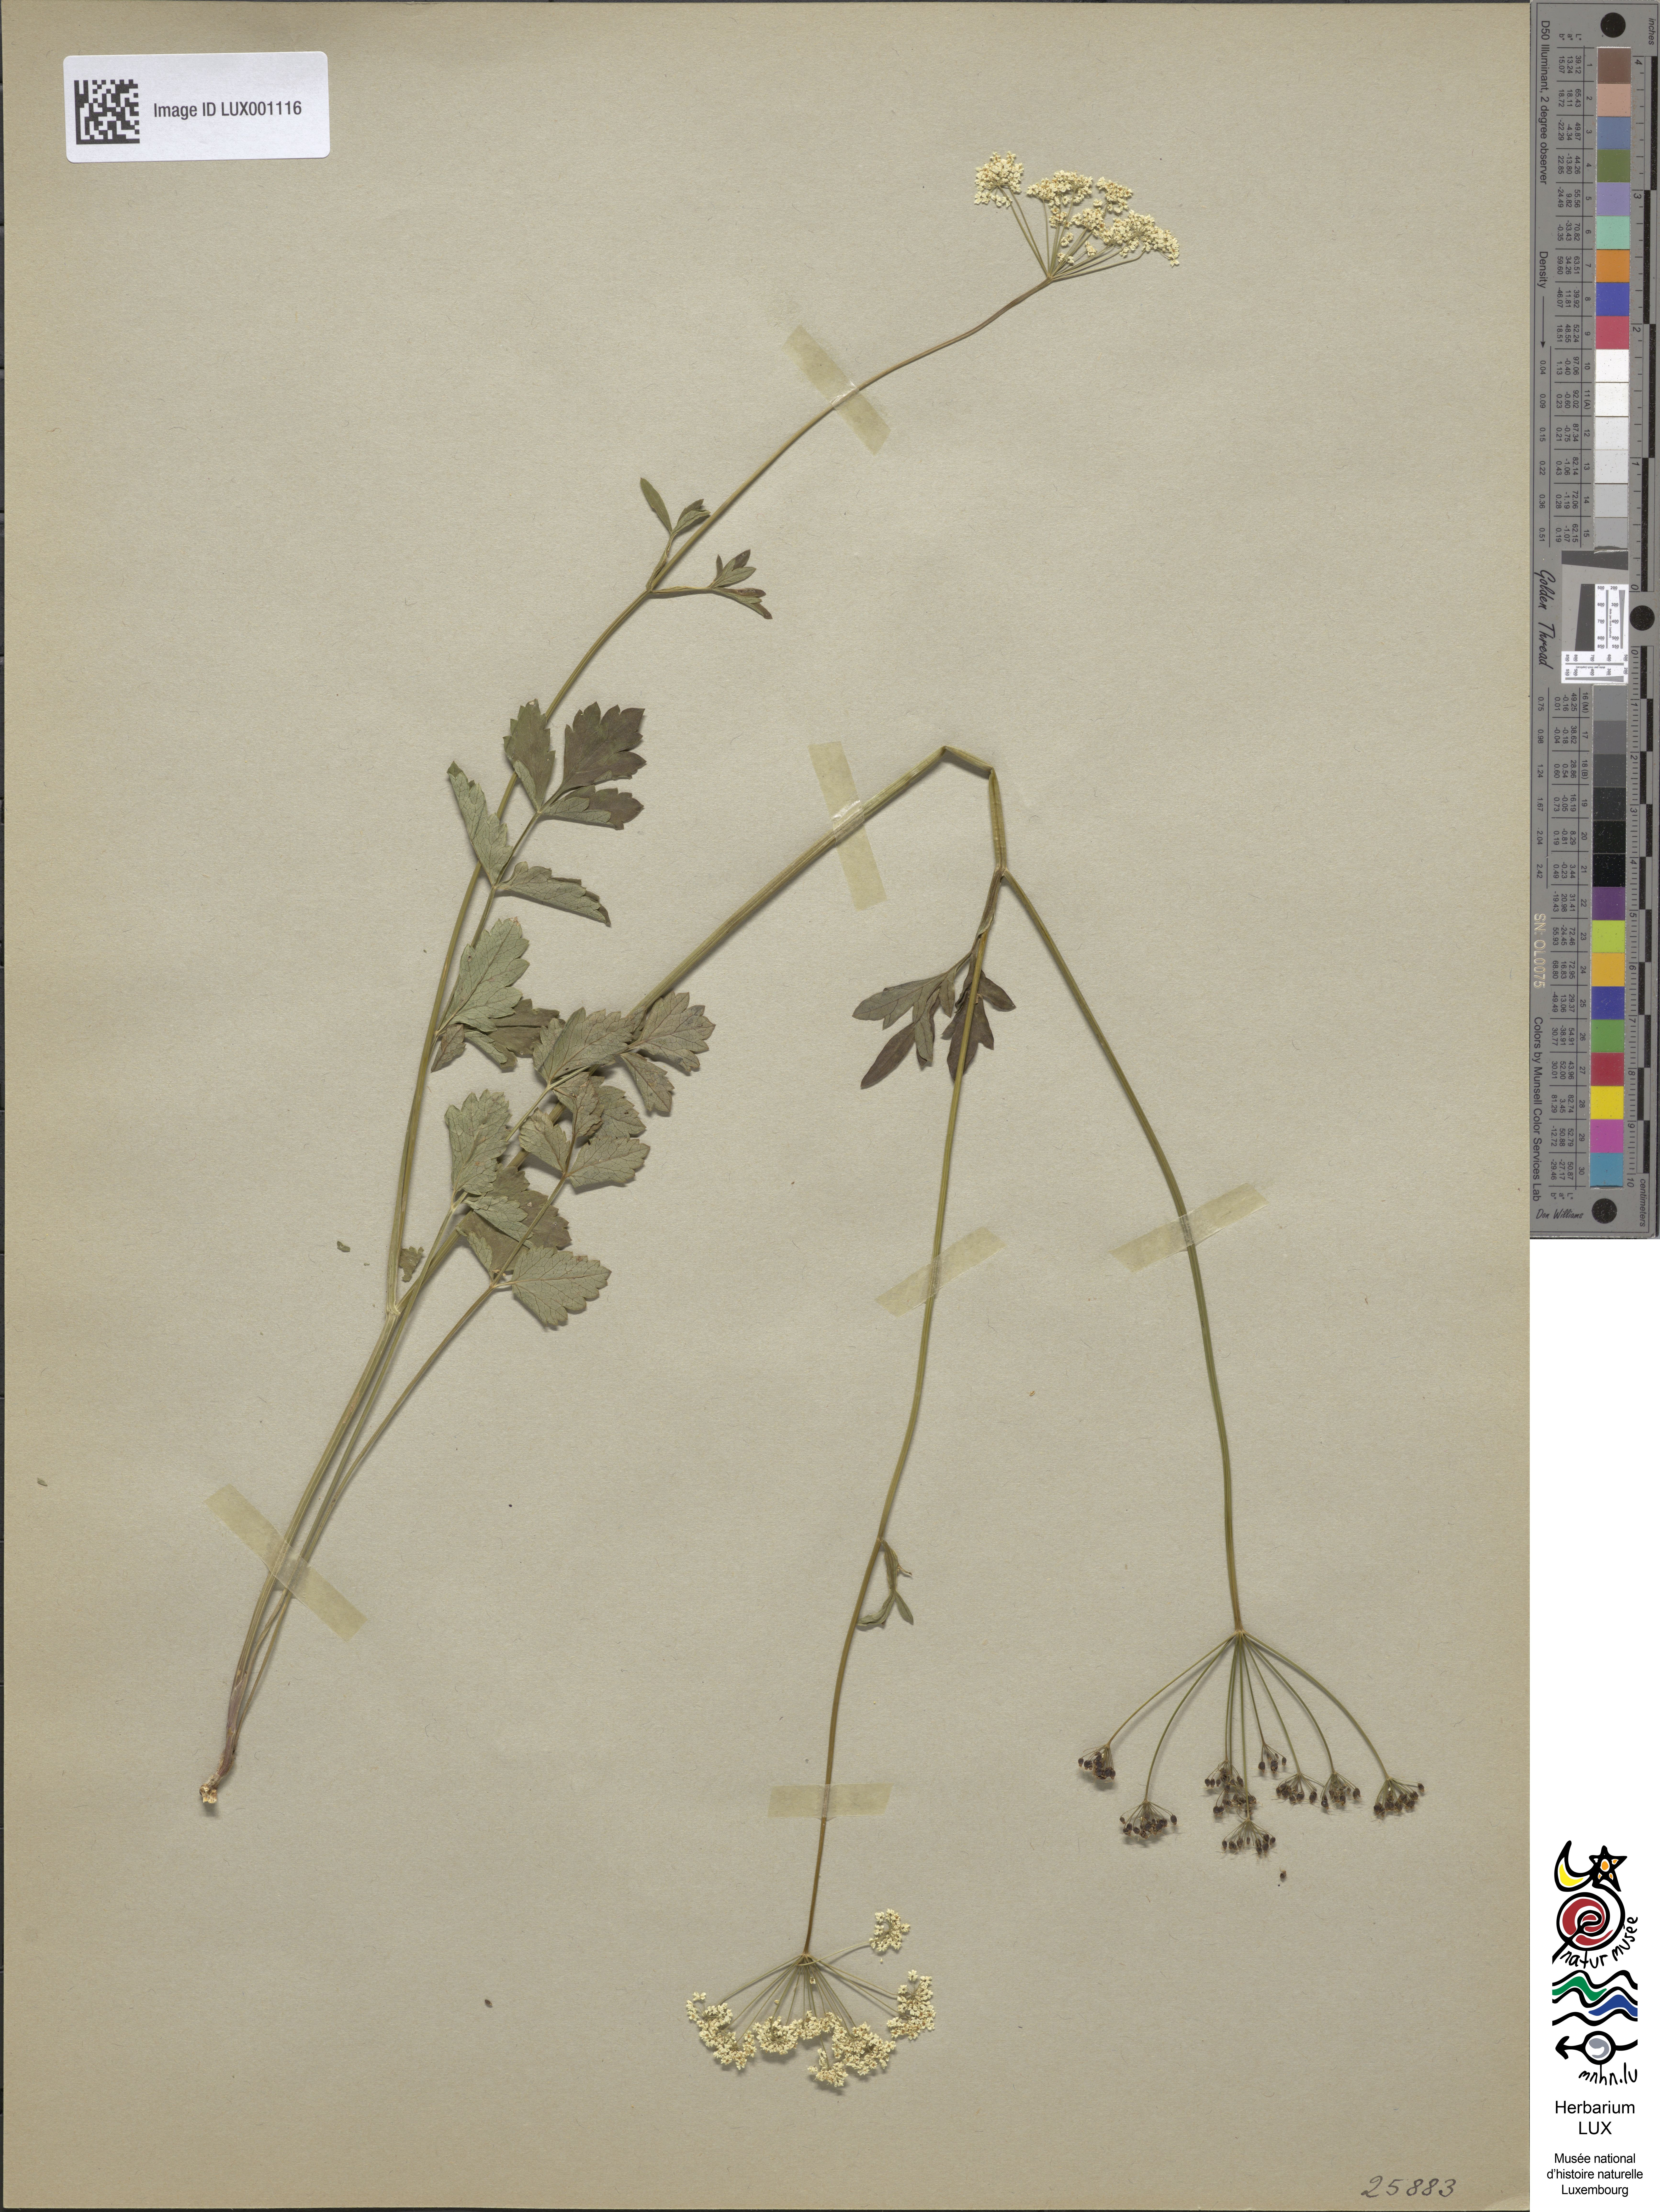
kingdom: Plantae
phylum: Tracheophyta
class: Magnoliopsida
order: Apiales
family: Apiaceae
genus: Pimpinella
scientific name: Pimpinella major
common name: Greater burnet-saxifrage
